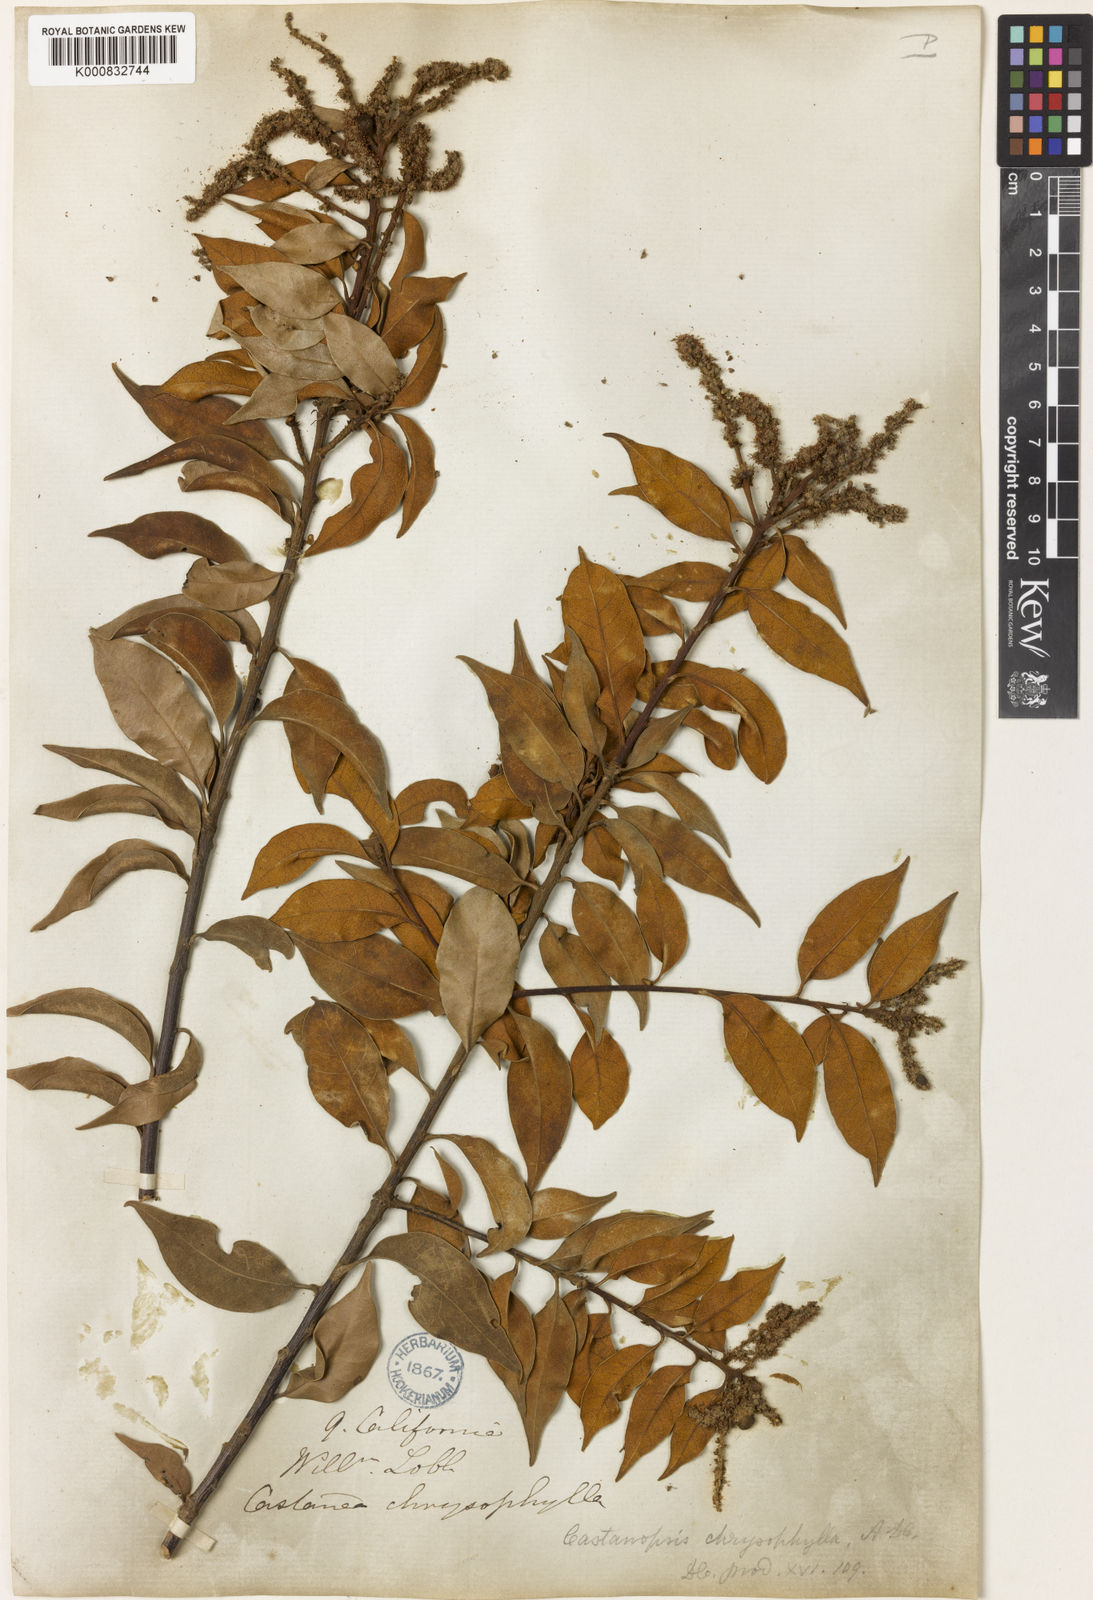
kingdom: Plantae
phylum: Tracheophyta
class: Magnoliopsida
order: Fagales
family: Fagaceae
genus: Chrysolepis
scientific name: Chrysolepis chrysophylla
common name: Giant chinquapin
